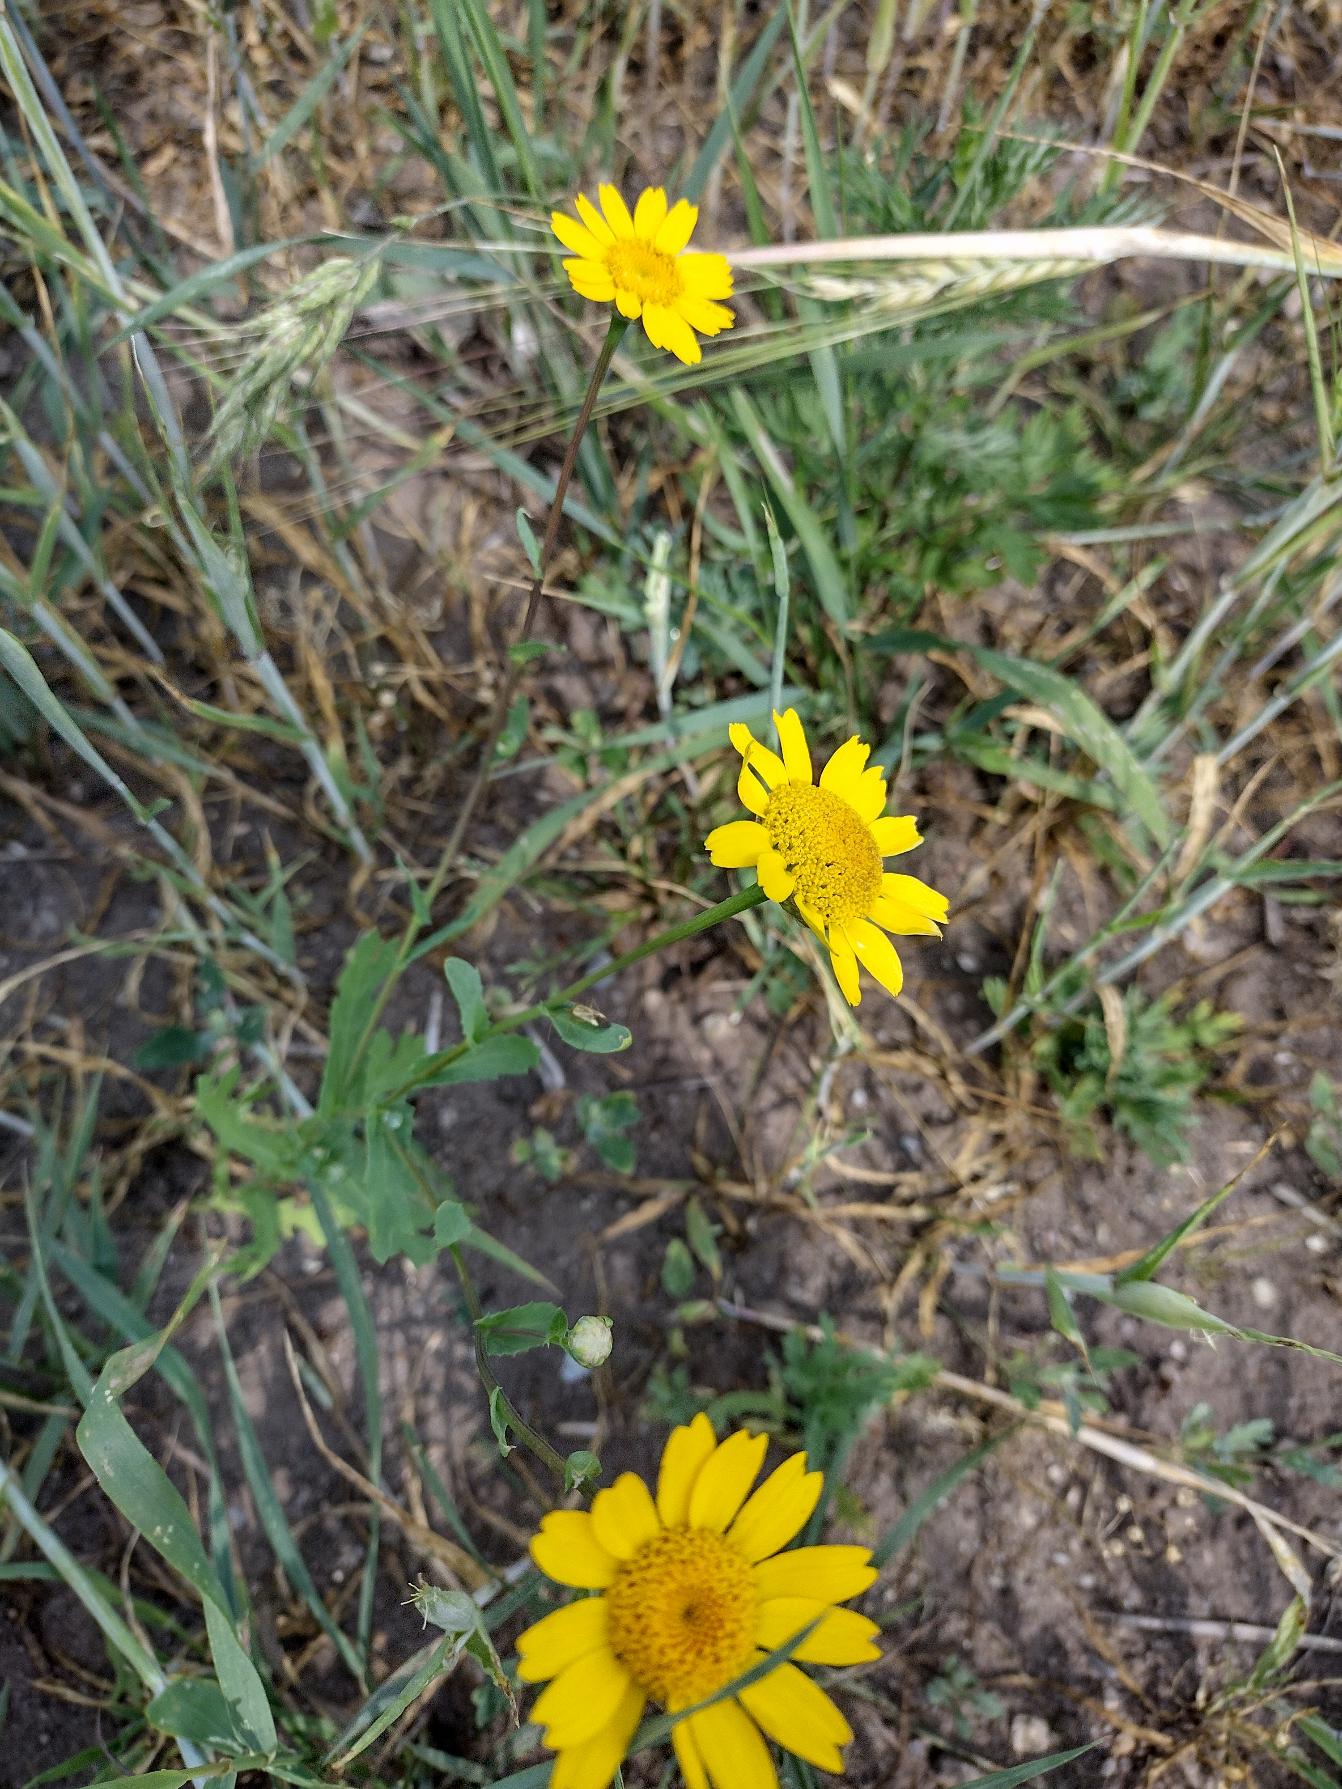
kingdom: Plantae
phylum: Tracheophyta
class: Magnoliopsida
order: Asterales
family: Asteraceae
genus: Glebionis
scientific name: Glebionis segetum
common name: Gul okseøje
